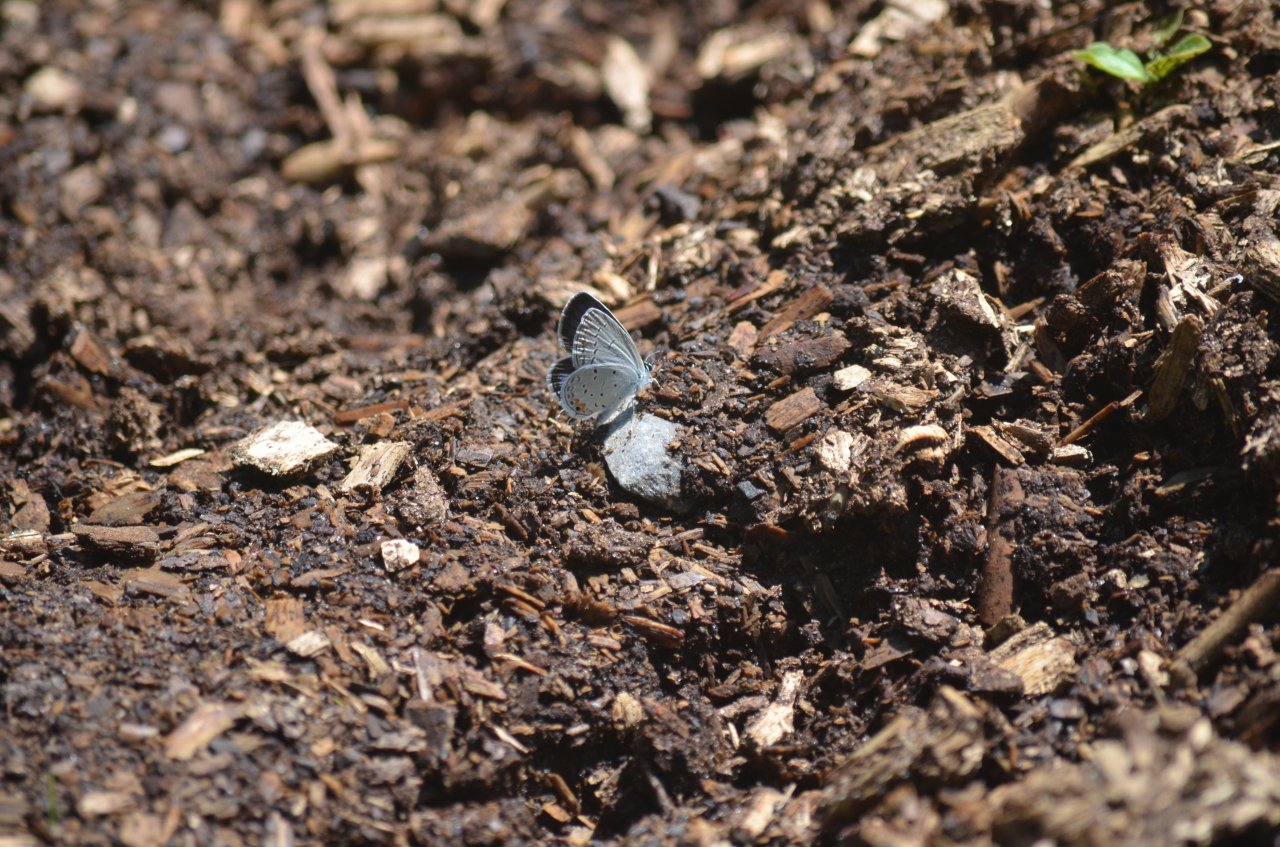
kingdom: Animalia
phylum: Arthropoda
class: Insecta
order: Lepidoptera
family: Lycaenidae
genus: Elkalyce
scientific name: Elkalyce comyntas
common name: Eastern Tailed-Blue
